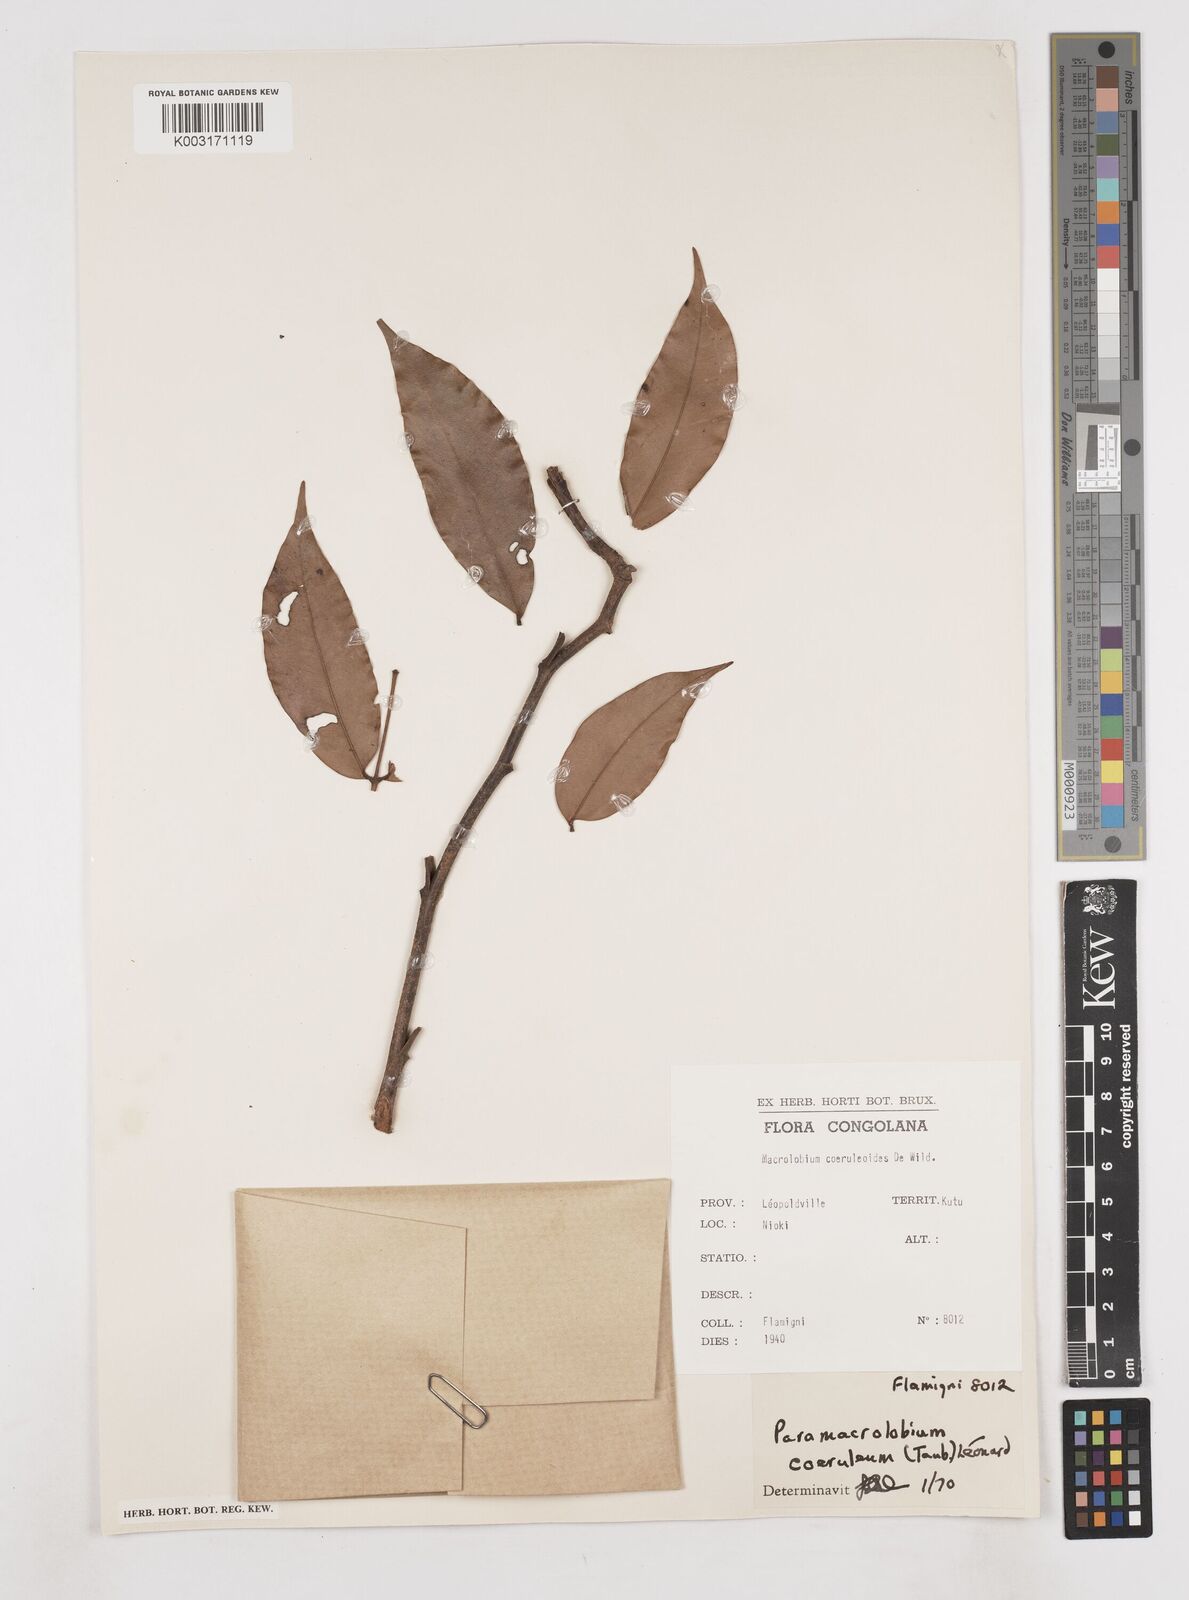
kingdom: Plantae
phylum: Tracheophyta
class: Magnoliopsida
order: Fabales
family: Fabaceae
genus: Paramacrolobium
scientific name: Paramacrolobium coeruleum
